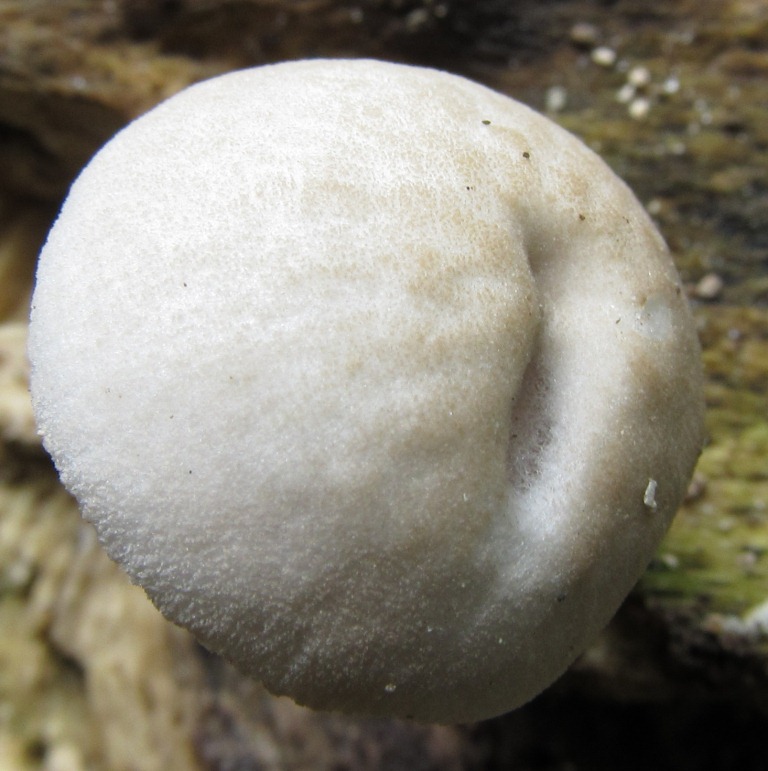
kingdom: Fungi
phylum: Basidiomycota
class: Agaricomycetes
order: Agaricales
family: Pluteaceae
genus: Pluteus
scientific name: Pluteus semibulbosus
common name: knoldet skærmhat
